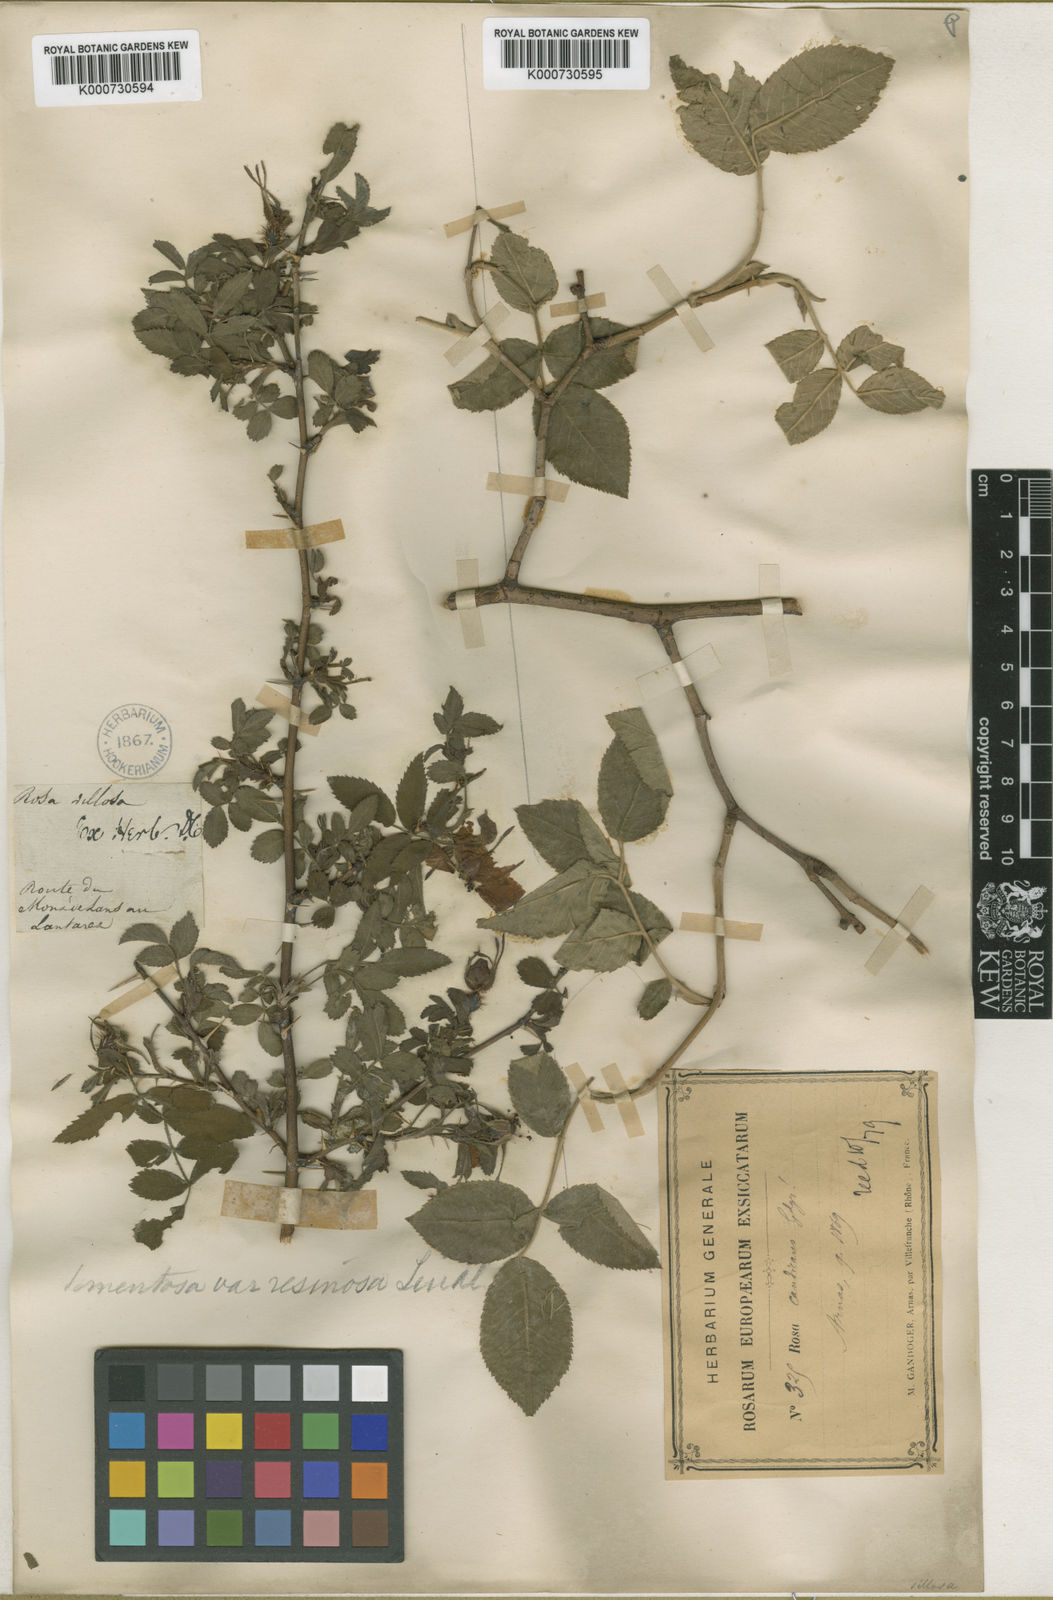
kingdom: Plantae
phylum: Tracheophyta
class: Magnoliopsida
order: Rosales
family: Rosaceae
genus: Rosa
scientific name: Rosa villosa
